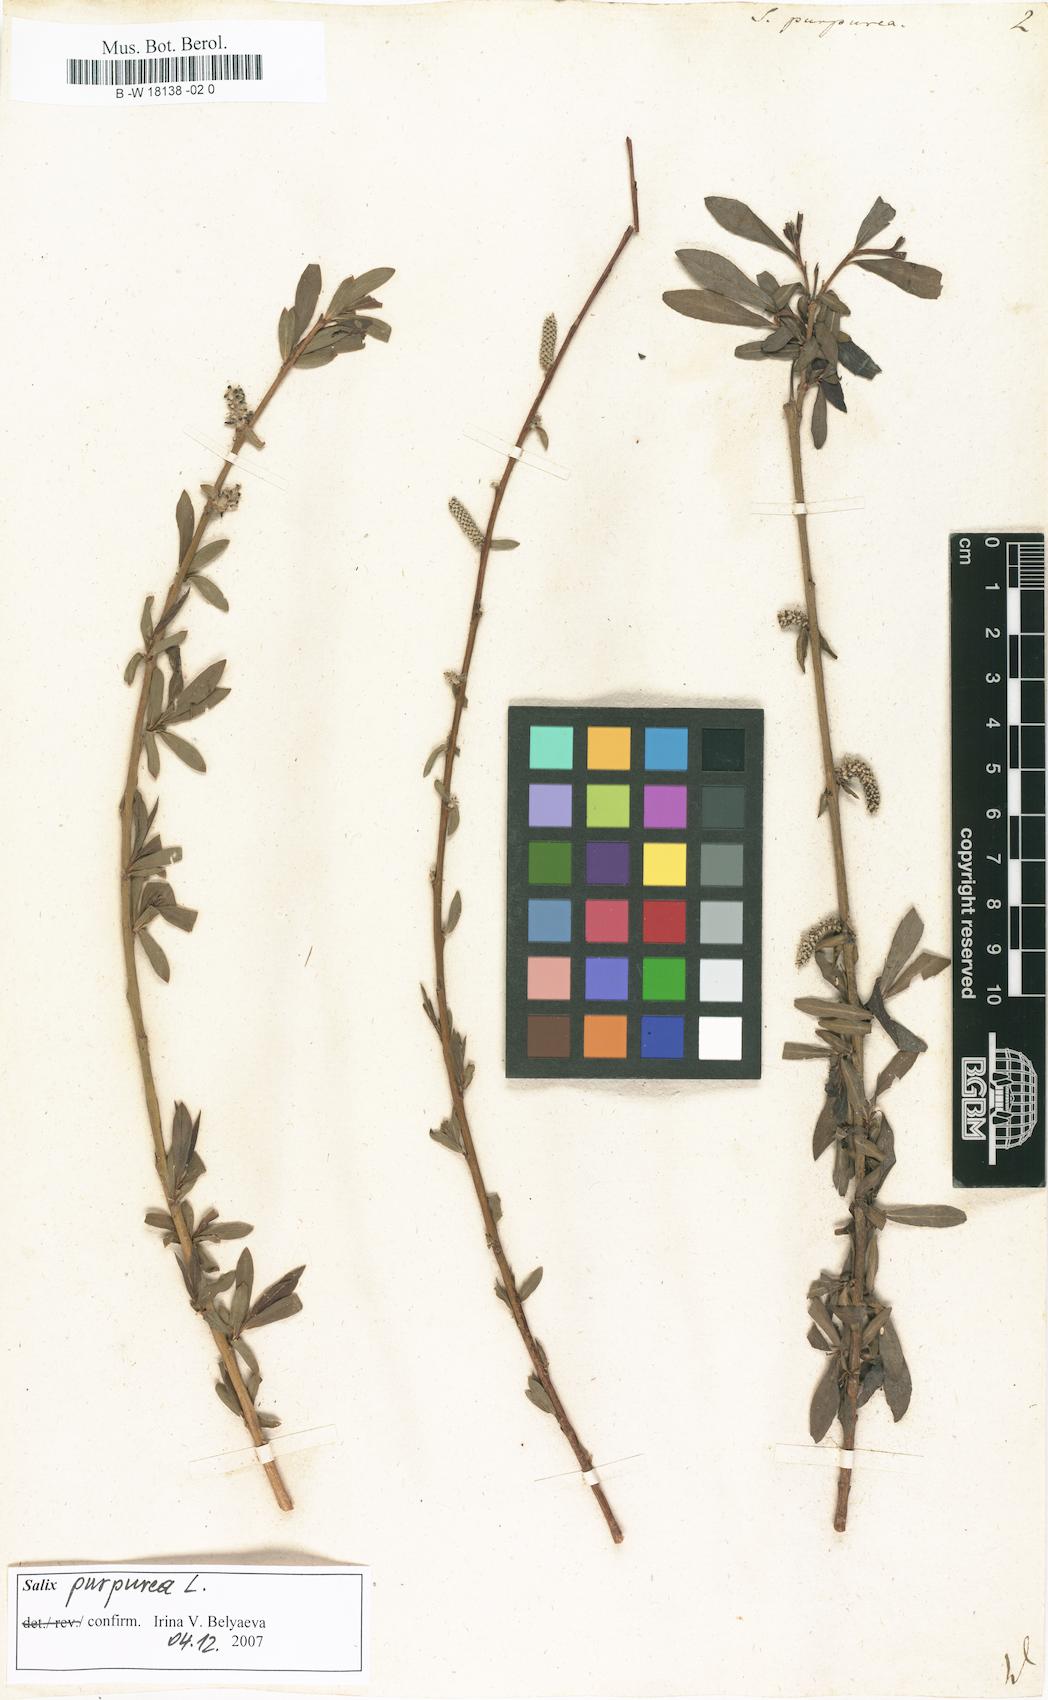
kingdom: Plantae
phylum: Tracheophyta
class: Magnoliopsida
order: Malpighiales
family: Salicaceae
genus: Salix
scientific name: Salix purpurea
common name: Purple willow
